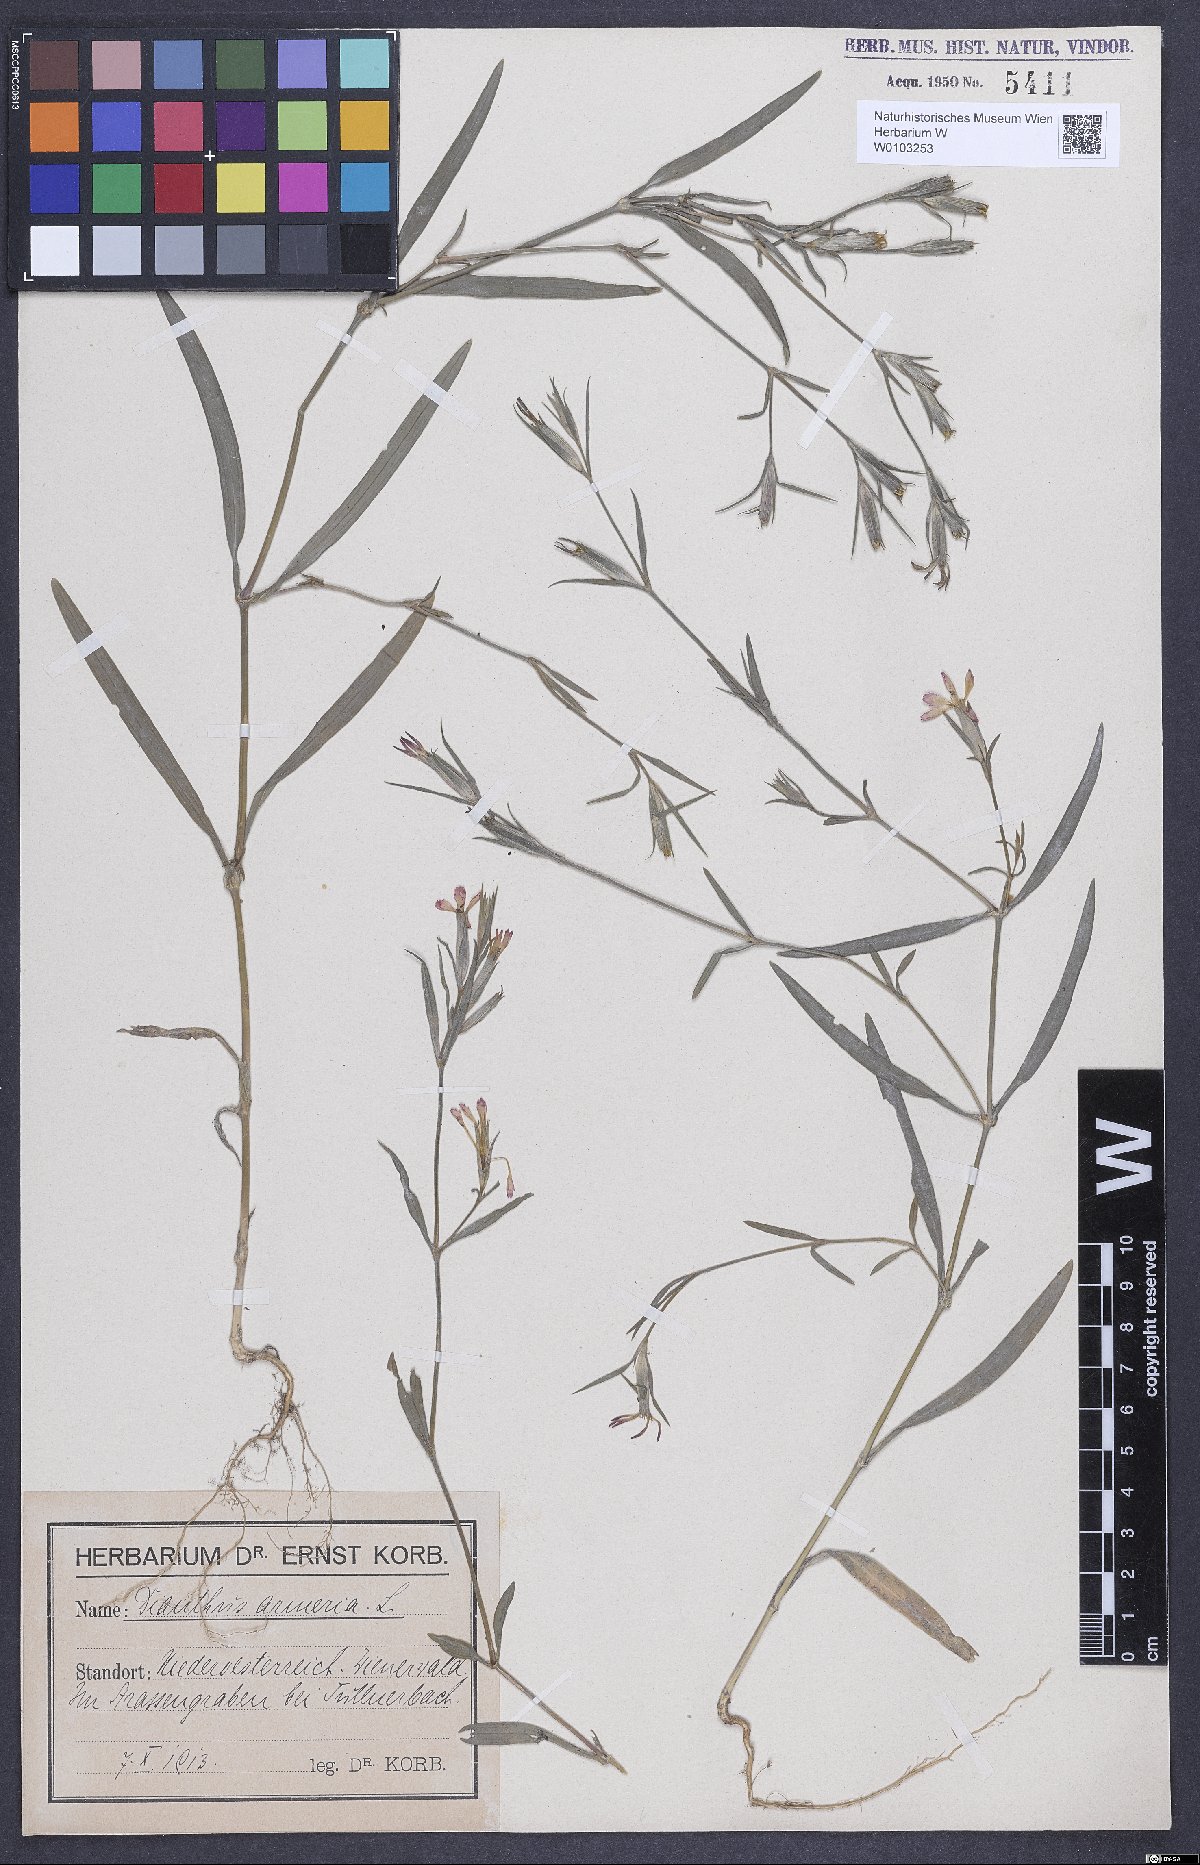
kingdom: Plantae
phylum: Tracheophyta
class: Magnoliopsida
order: Caryophyllales
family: Caryophyllaceae
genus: Dianthus
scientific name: Dianthus armeria
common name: Deptford pink
